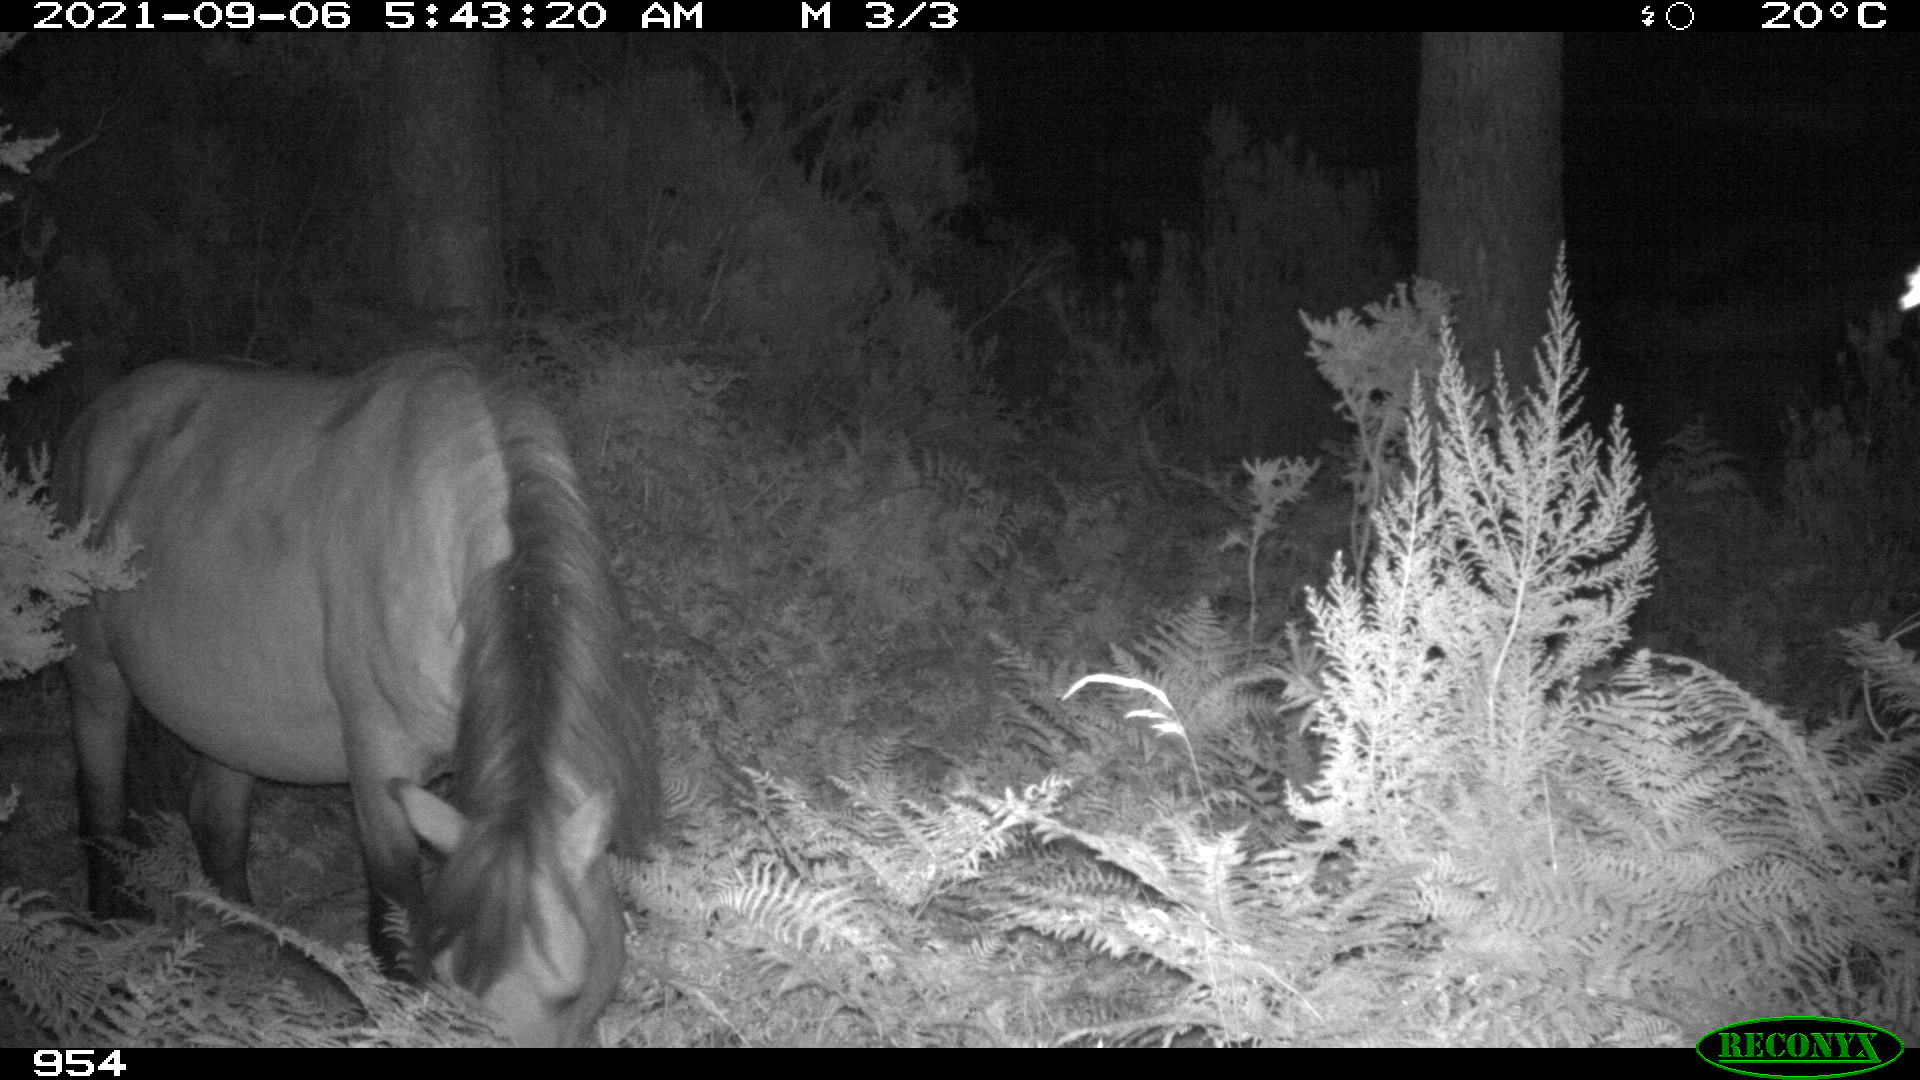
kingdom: Animalia
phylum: Chordata
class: Mammalia
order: Perissodactyla
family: Equidae
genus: Equus
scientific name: Equus caballus
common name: Horse
